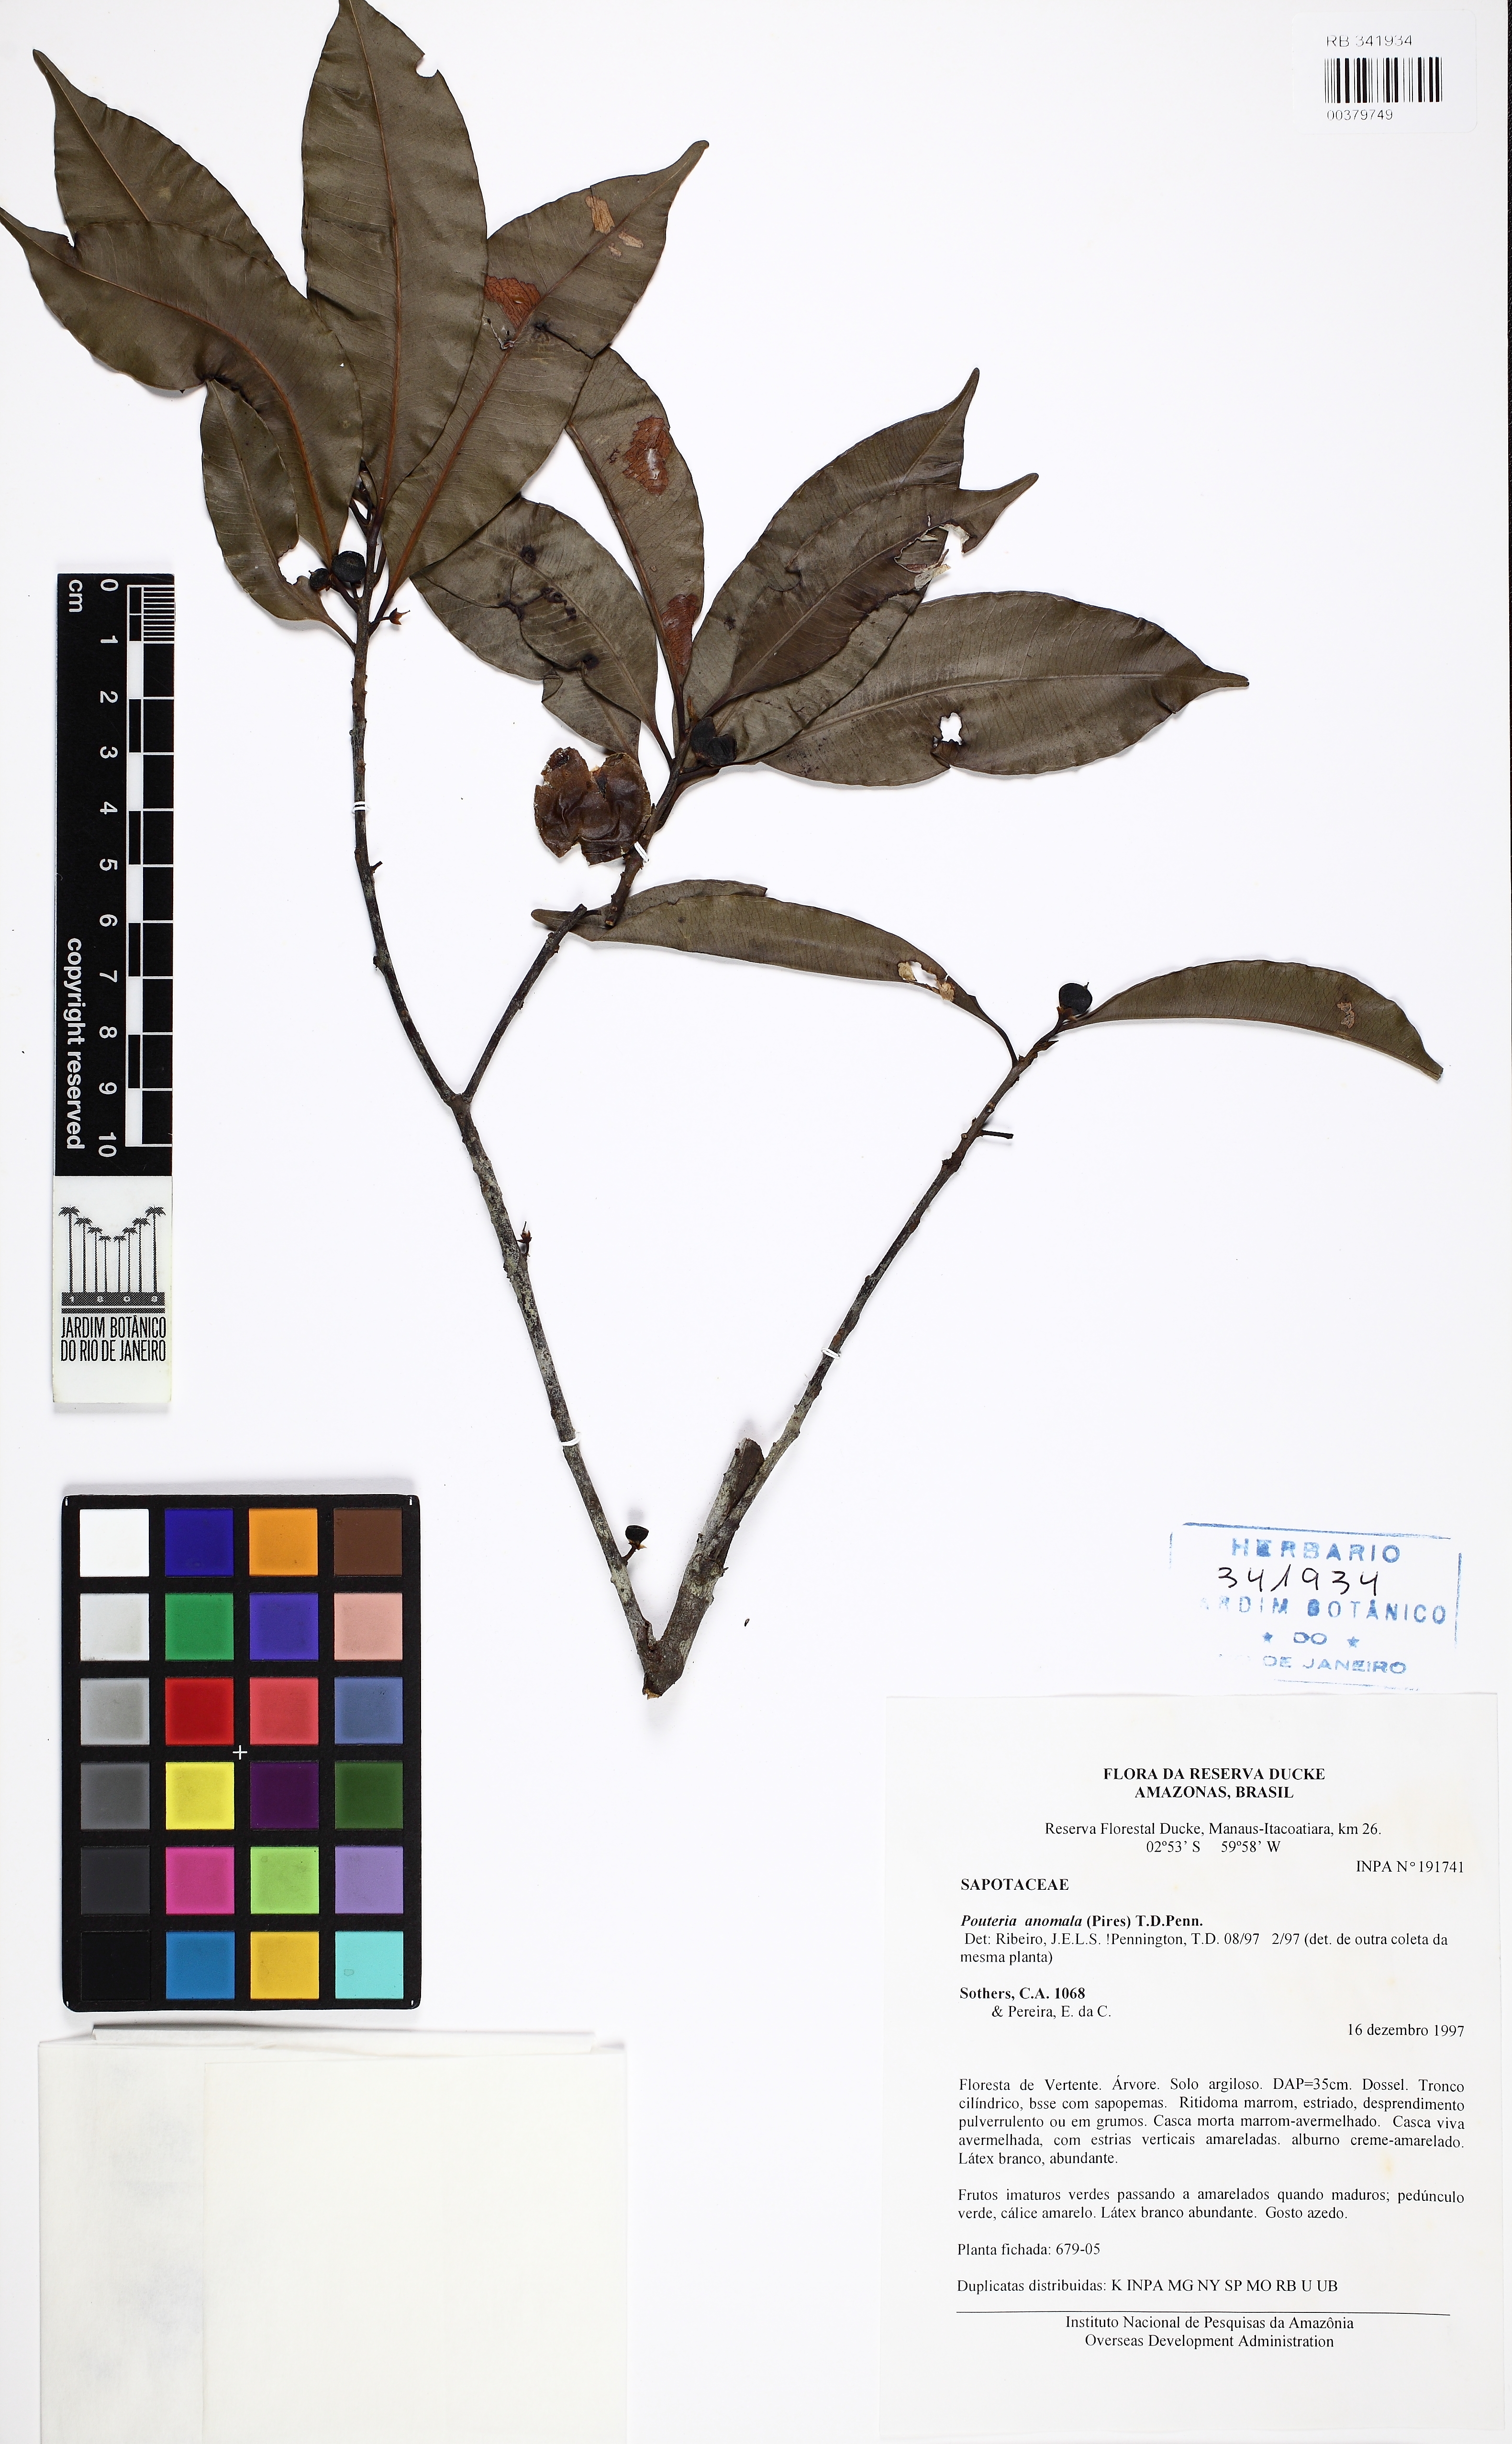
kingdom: Plantae
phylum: Tracheophyta
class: Magnoliopsida
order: Ericales
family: Sapotaceae
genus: Pouteria
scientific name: Pouteria anomala
